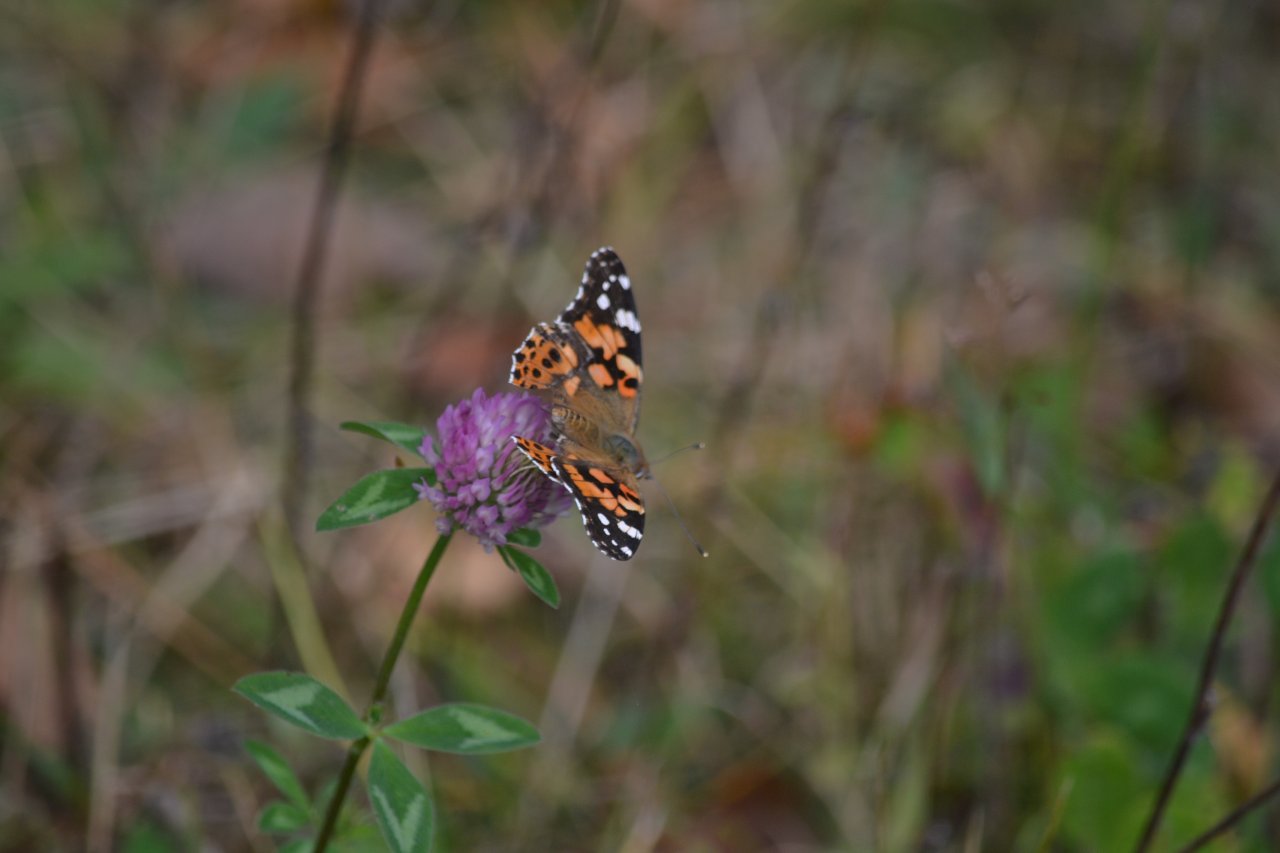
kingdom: Animalia
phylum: Arthropoda
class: Insecta
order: Lepidoptera
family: Nymphalidae
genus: Vanessa
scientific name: Vanessa cardui
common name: Painted Lady
